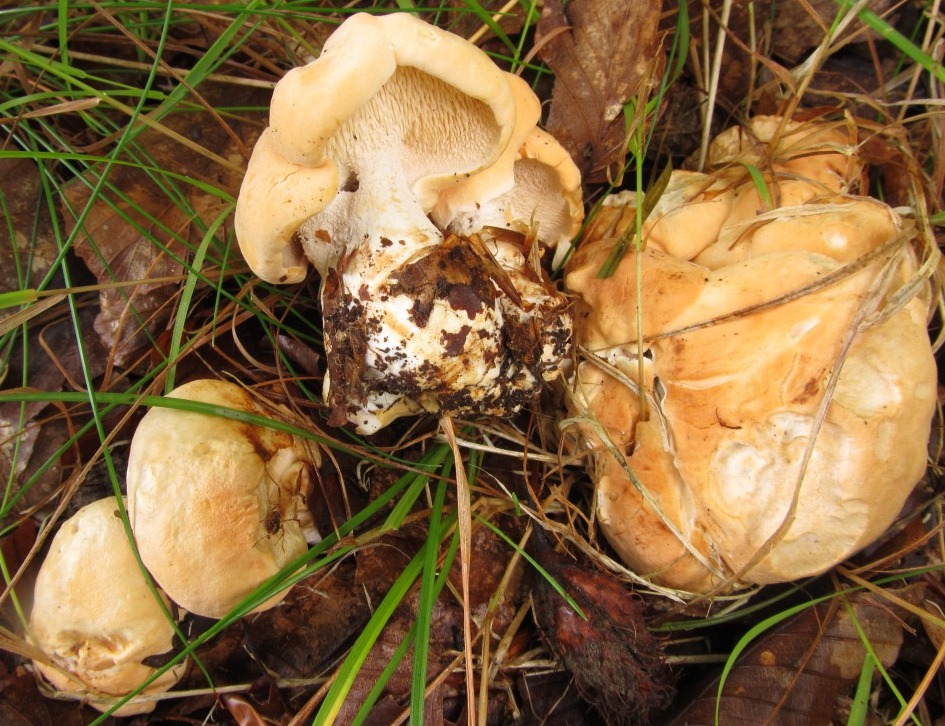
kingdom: Fungi
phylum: Basidiomycota
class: Agaricomycetes
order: Cantharellales
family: Hydnaceae
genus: Hydnum
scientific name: Hydnum repandum
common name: almindelig pigsvamp
